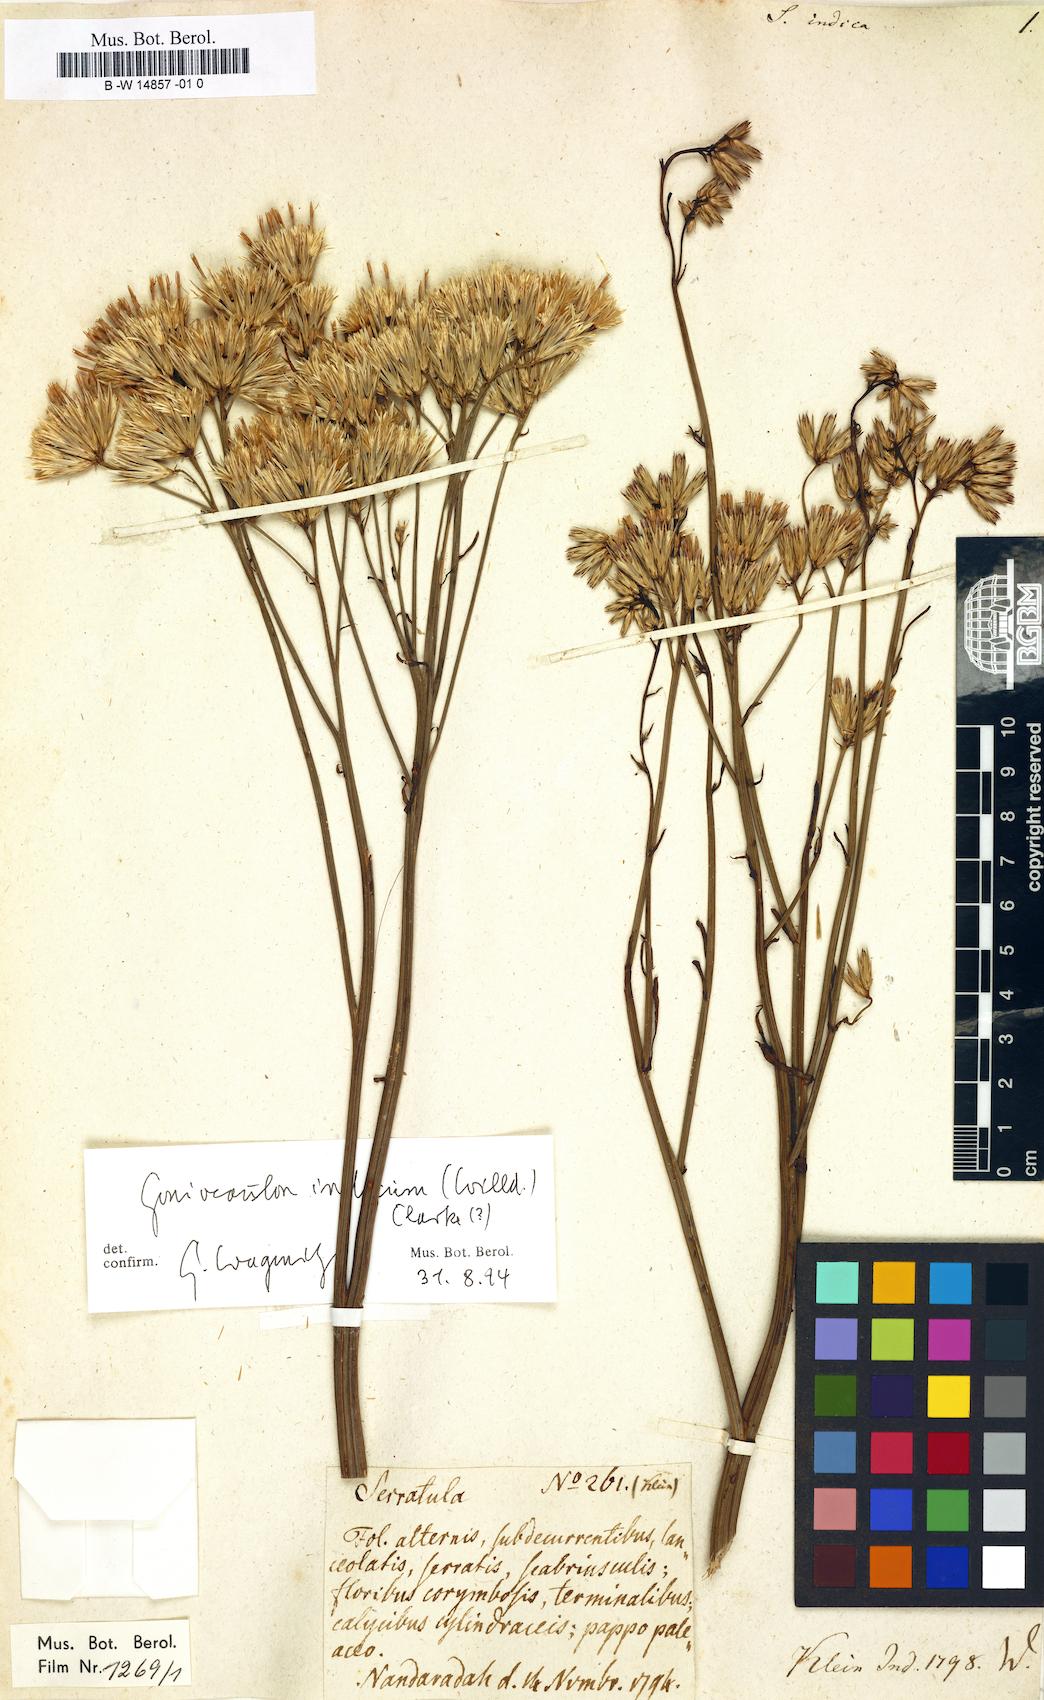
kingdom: Plantae
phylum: Tracheophyta
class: Magnoliopsida
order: Asterales
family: Asteraceae
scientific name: Asteraceae
